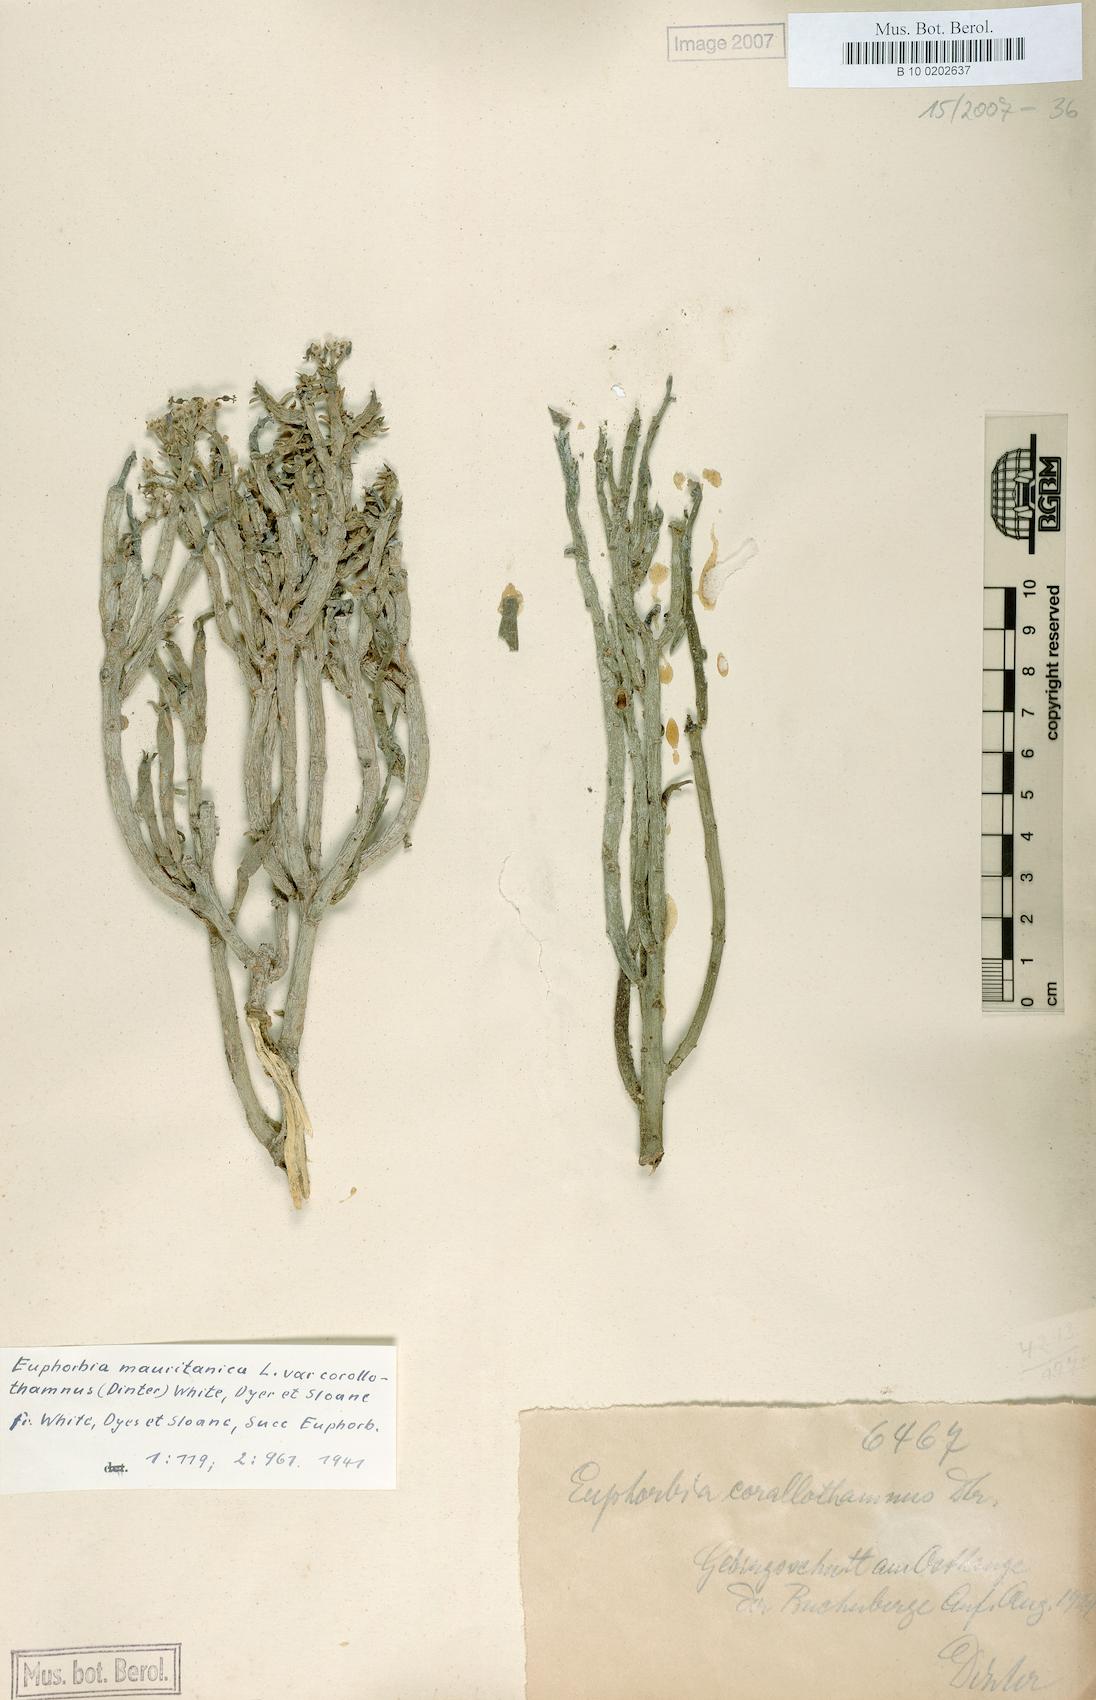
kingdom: Plantae
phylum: Tracheophyta
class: Magnoliopsida
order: Malpighiales
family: Euphorbiaceae
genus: Euphorbia
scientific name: Euphorbia mauritanica
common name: Jackal's-food
